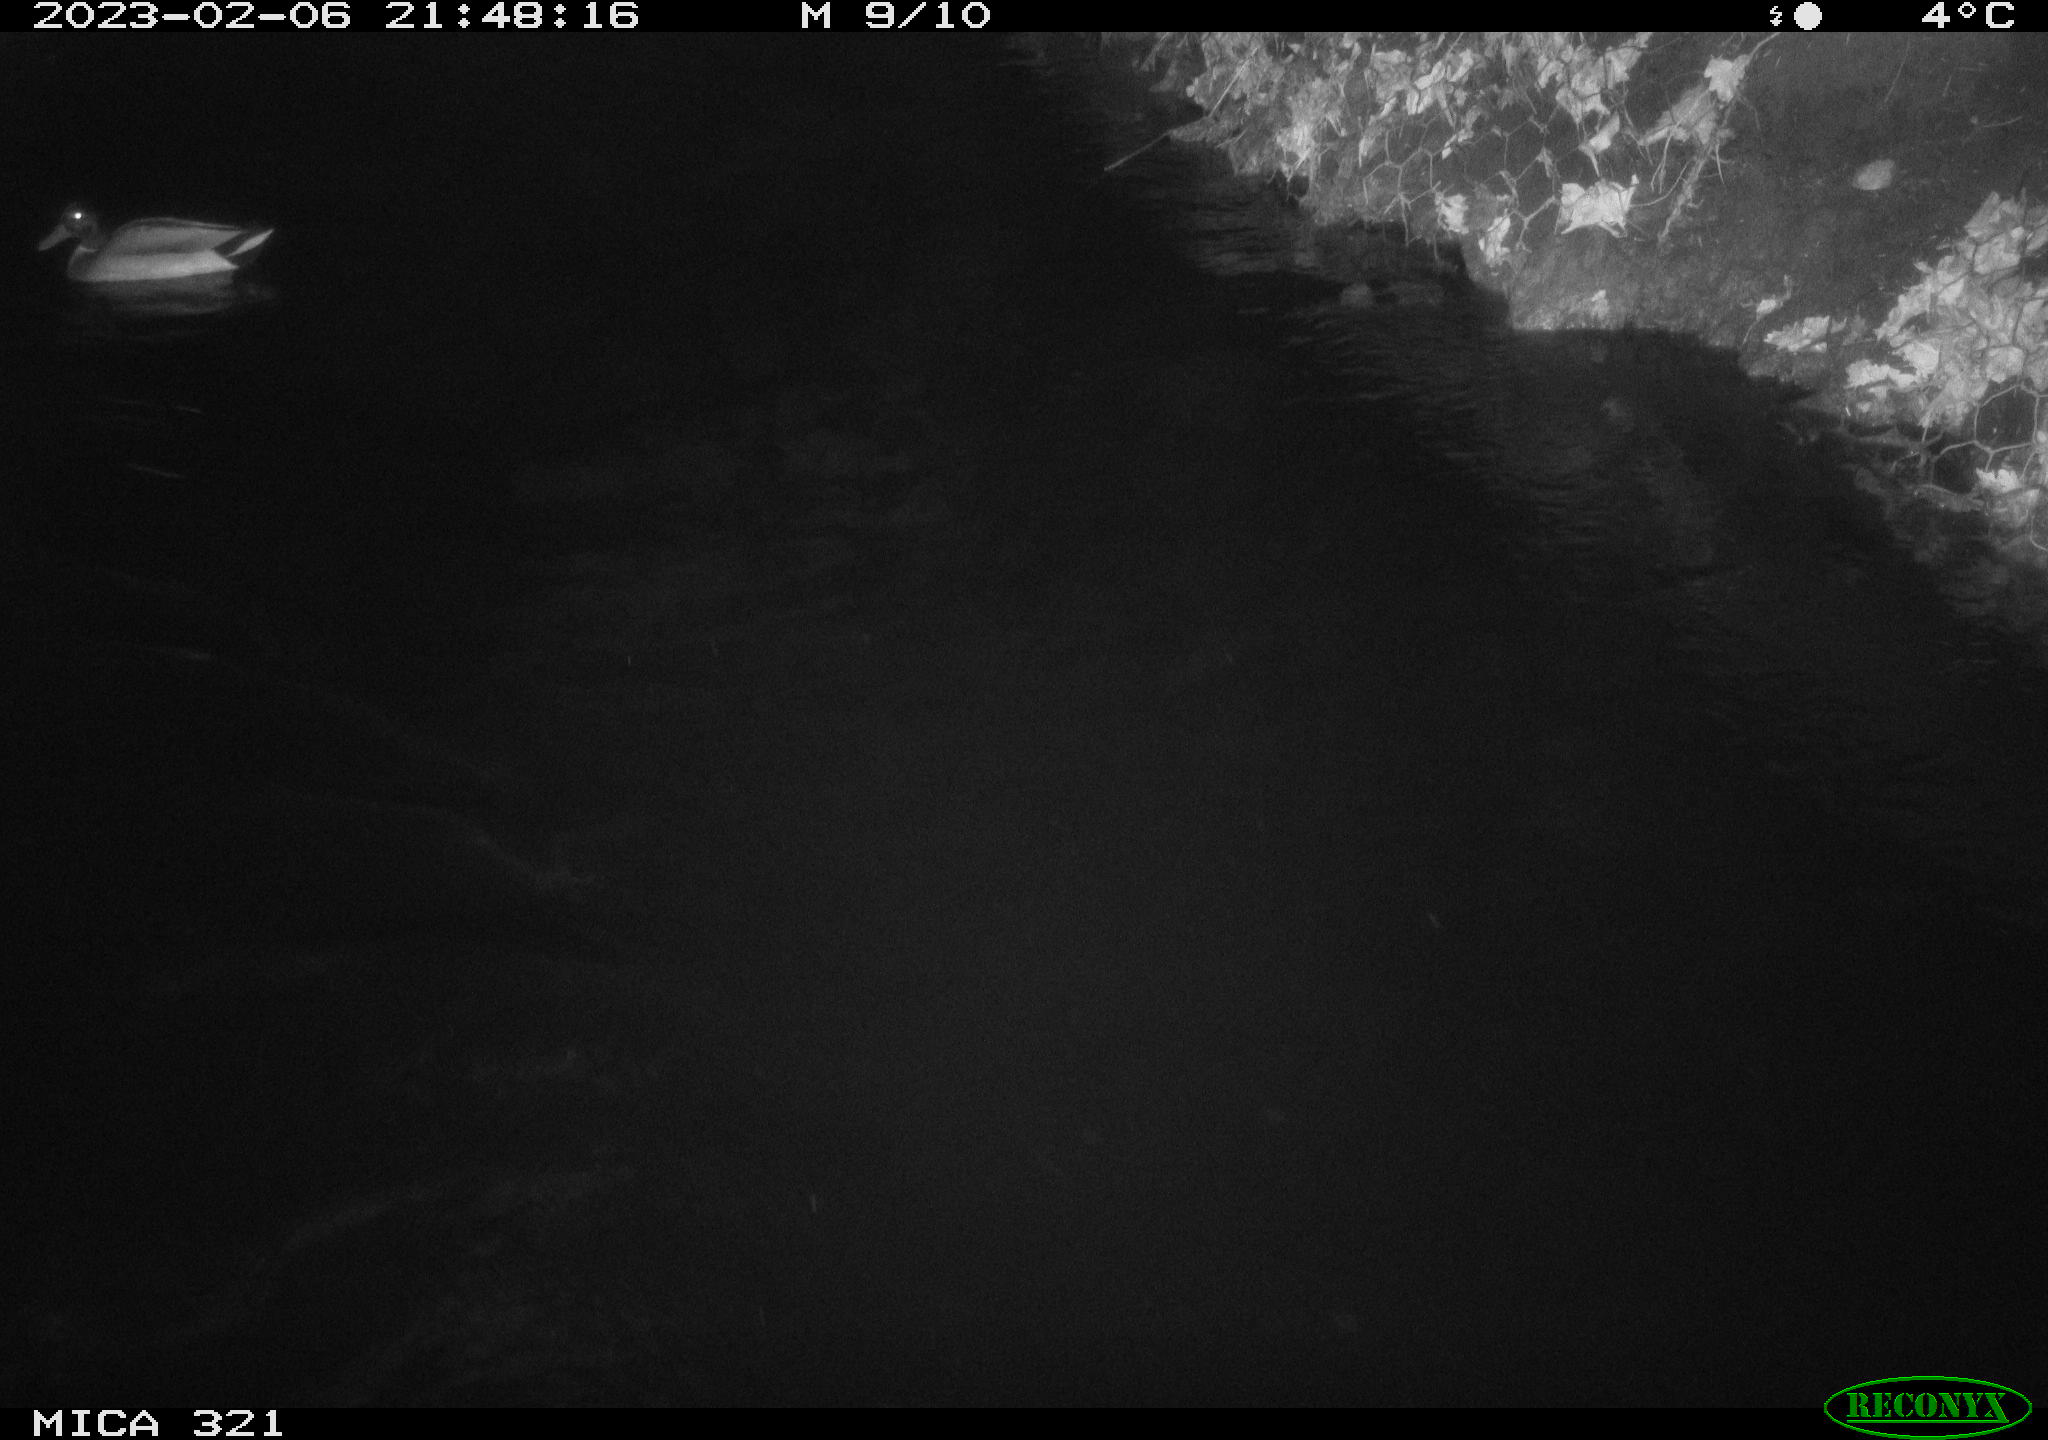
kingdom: Animalia
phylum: Chordata
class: Aves
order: Anseriformes
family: Anatidae
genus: Anas
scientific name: Anas
